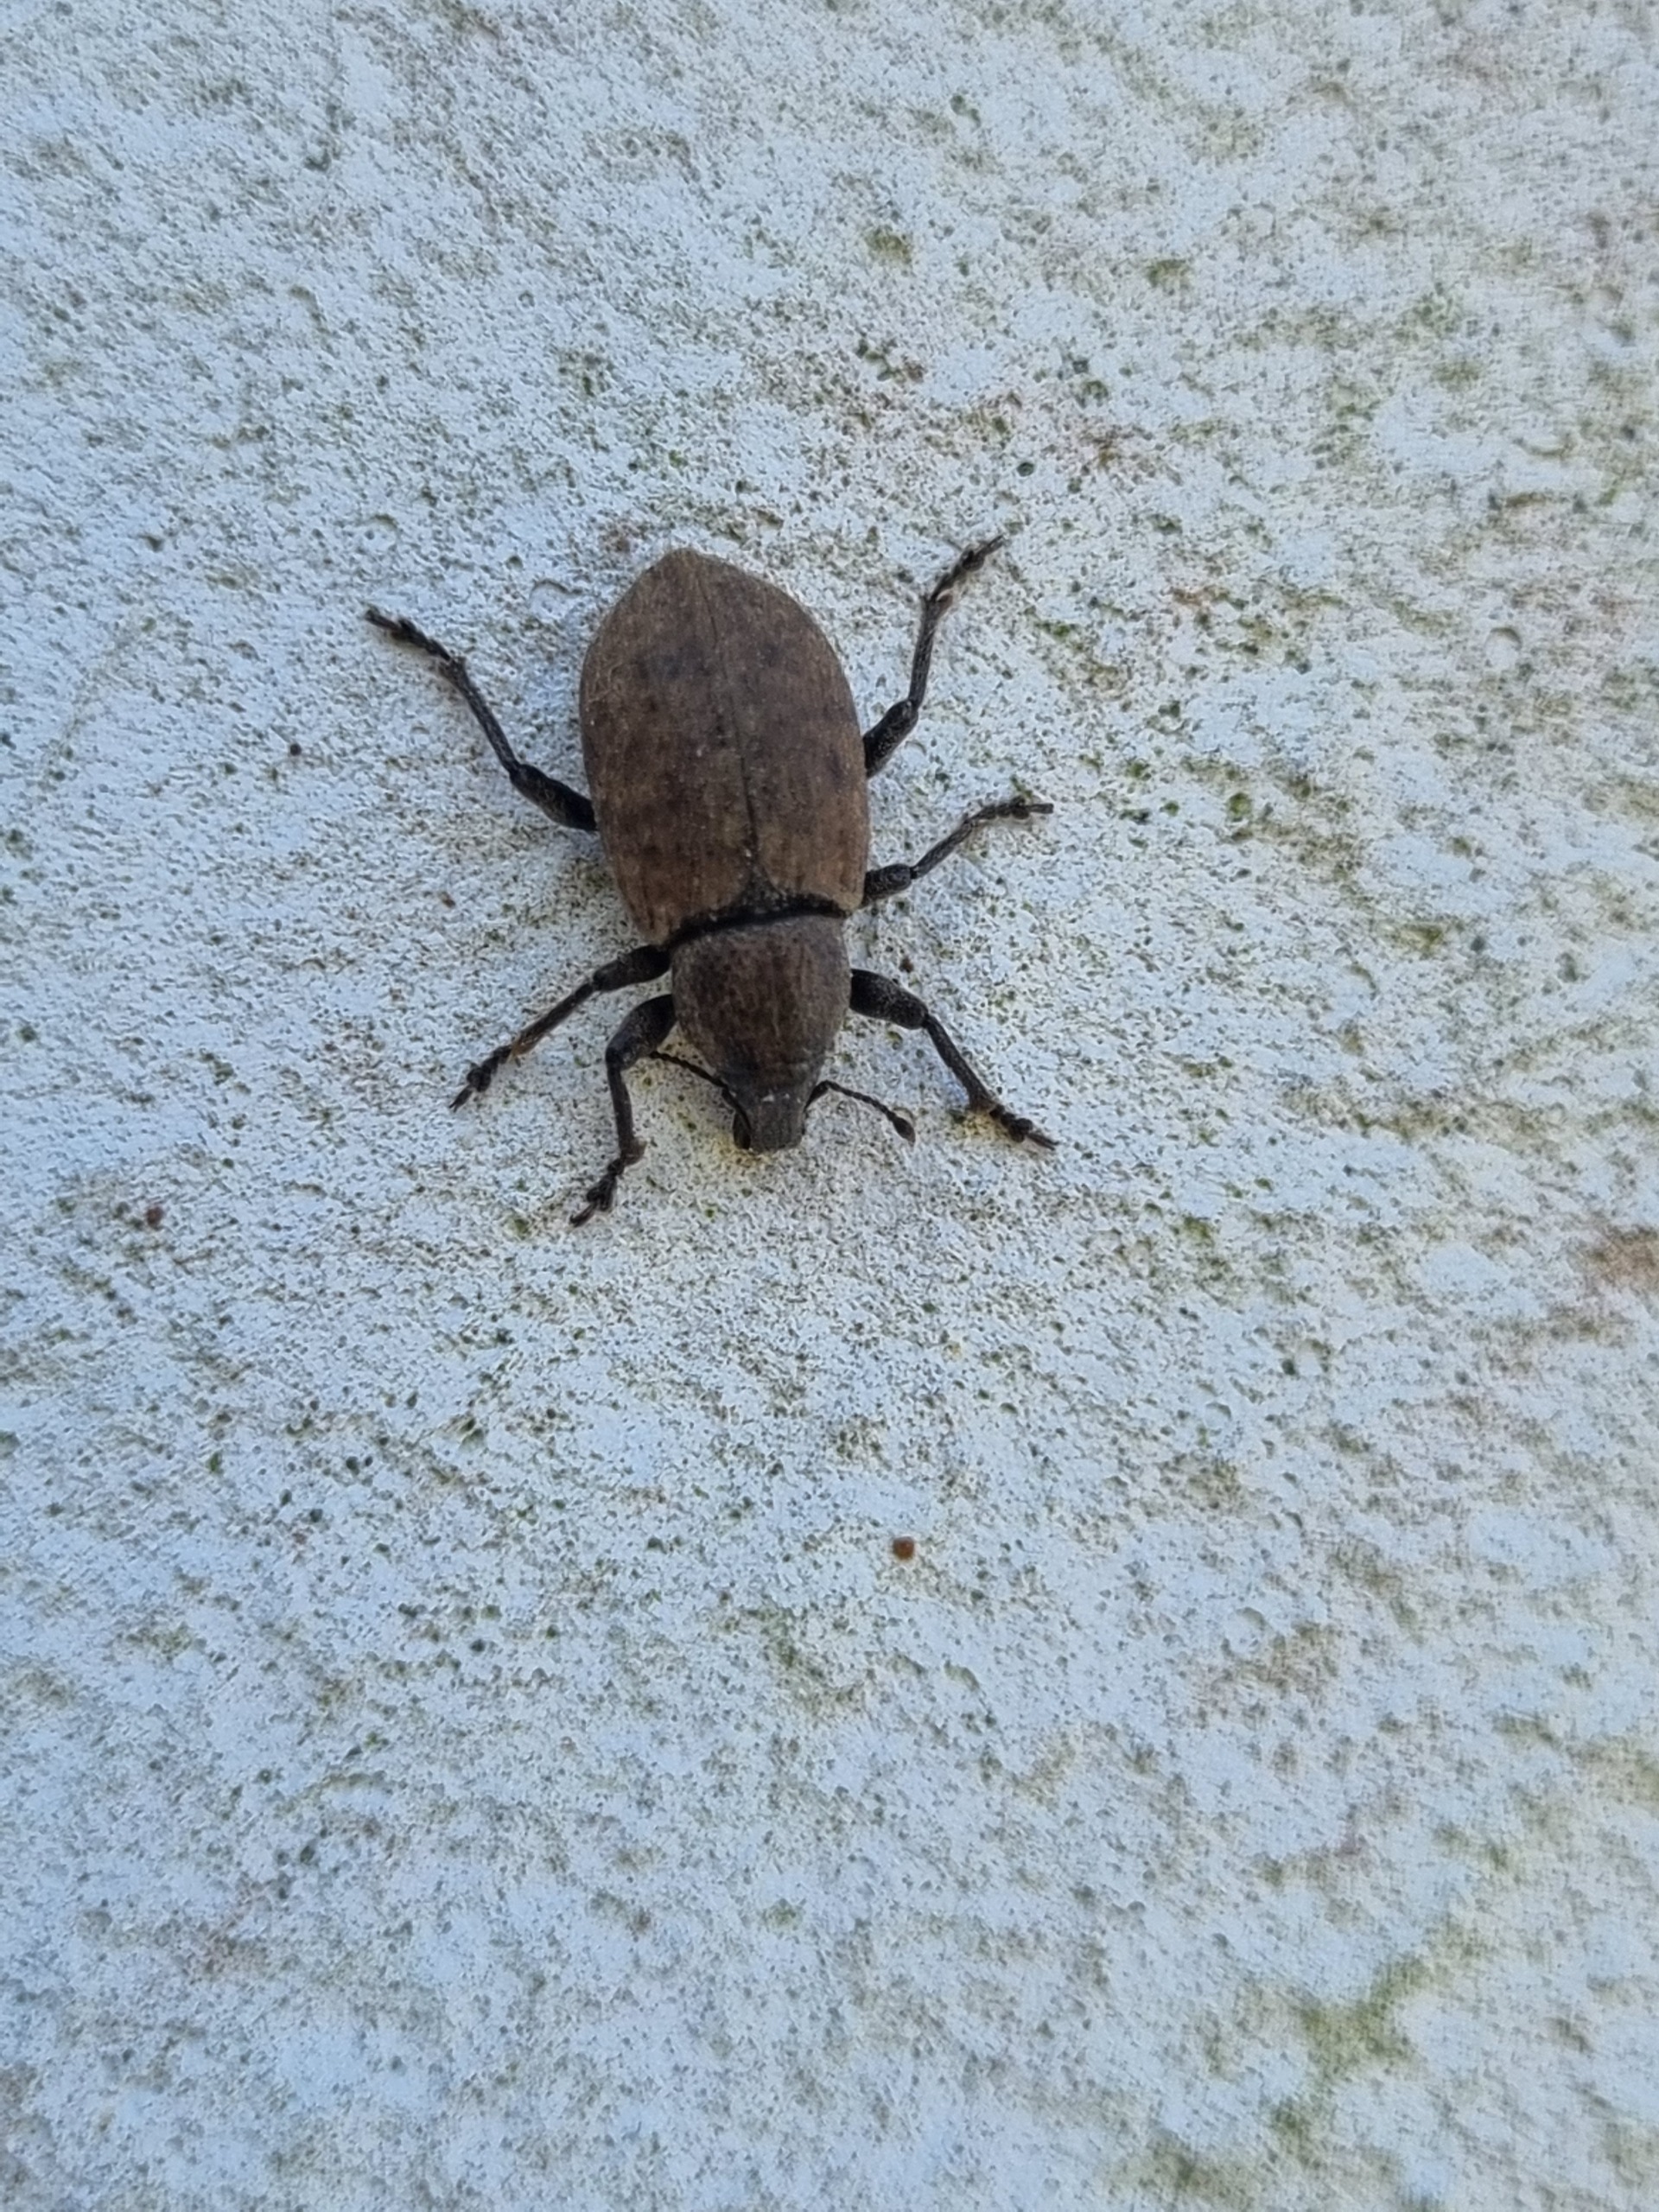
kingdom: Animalia
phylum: Arthropoda
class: Insecta
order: Coleoptera
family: Curculionidae
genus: Barynotus
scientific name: Barynotus obscurus
